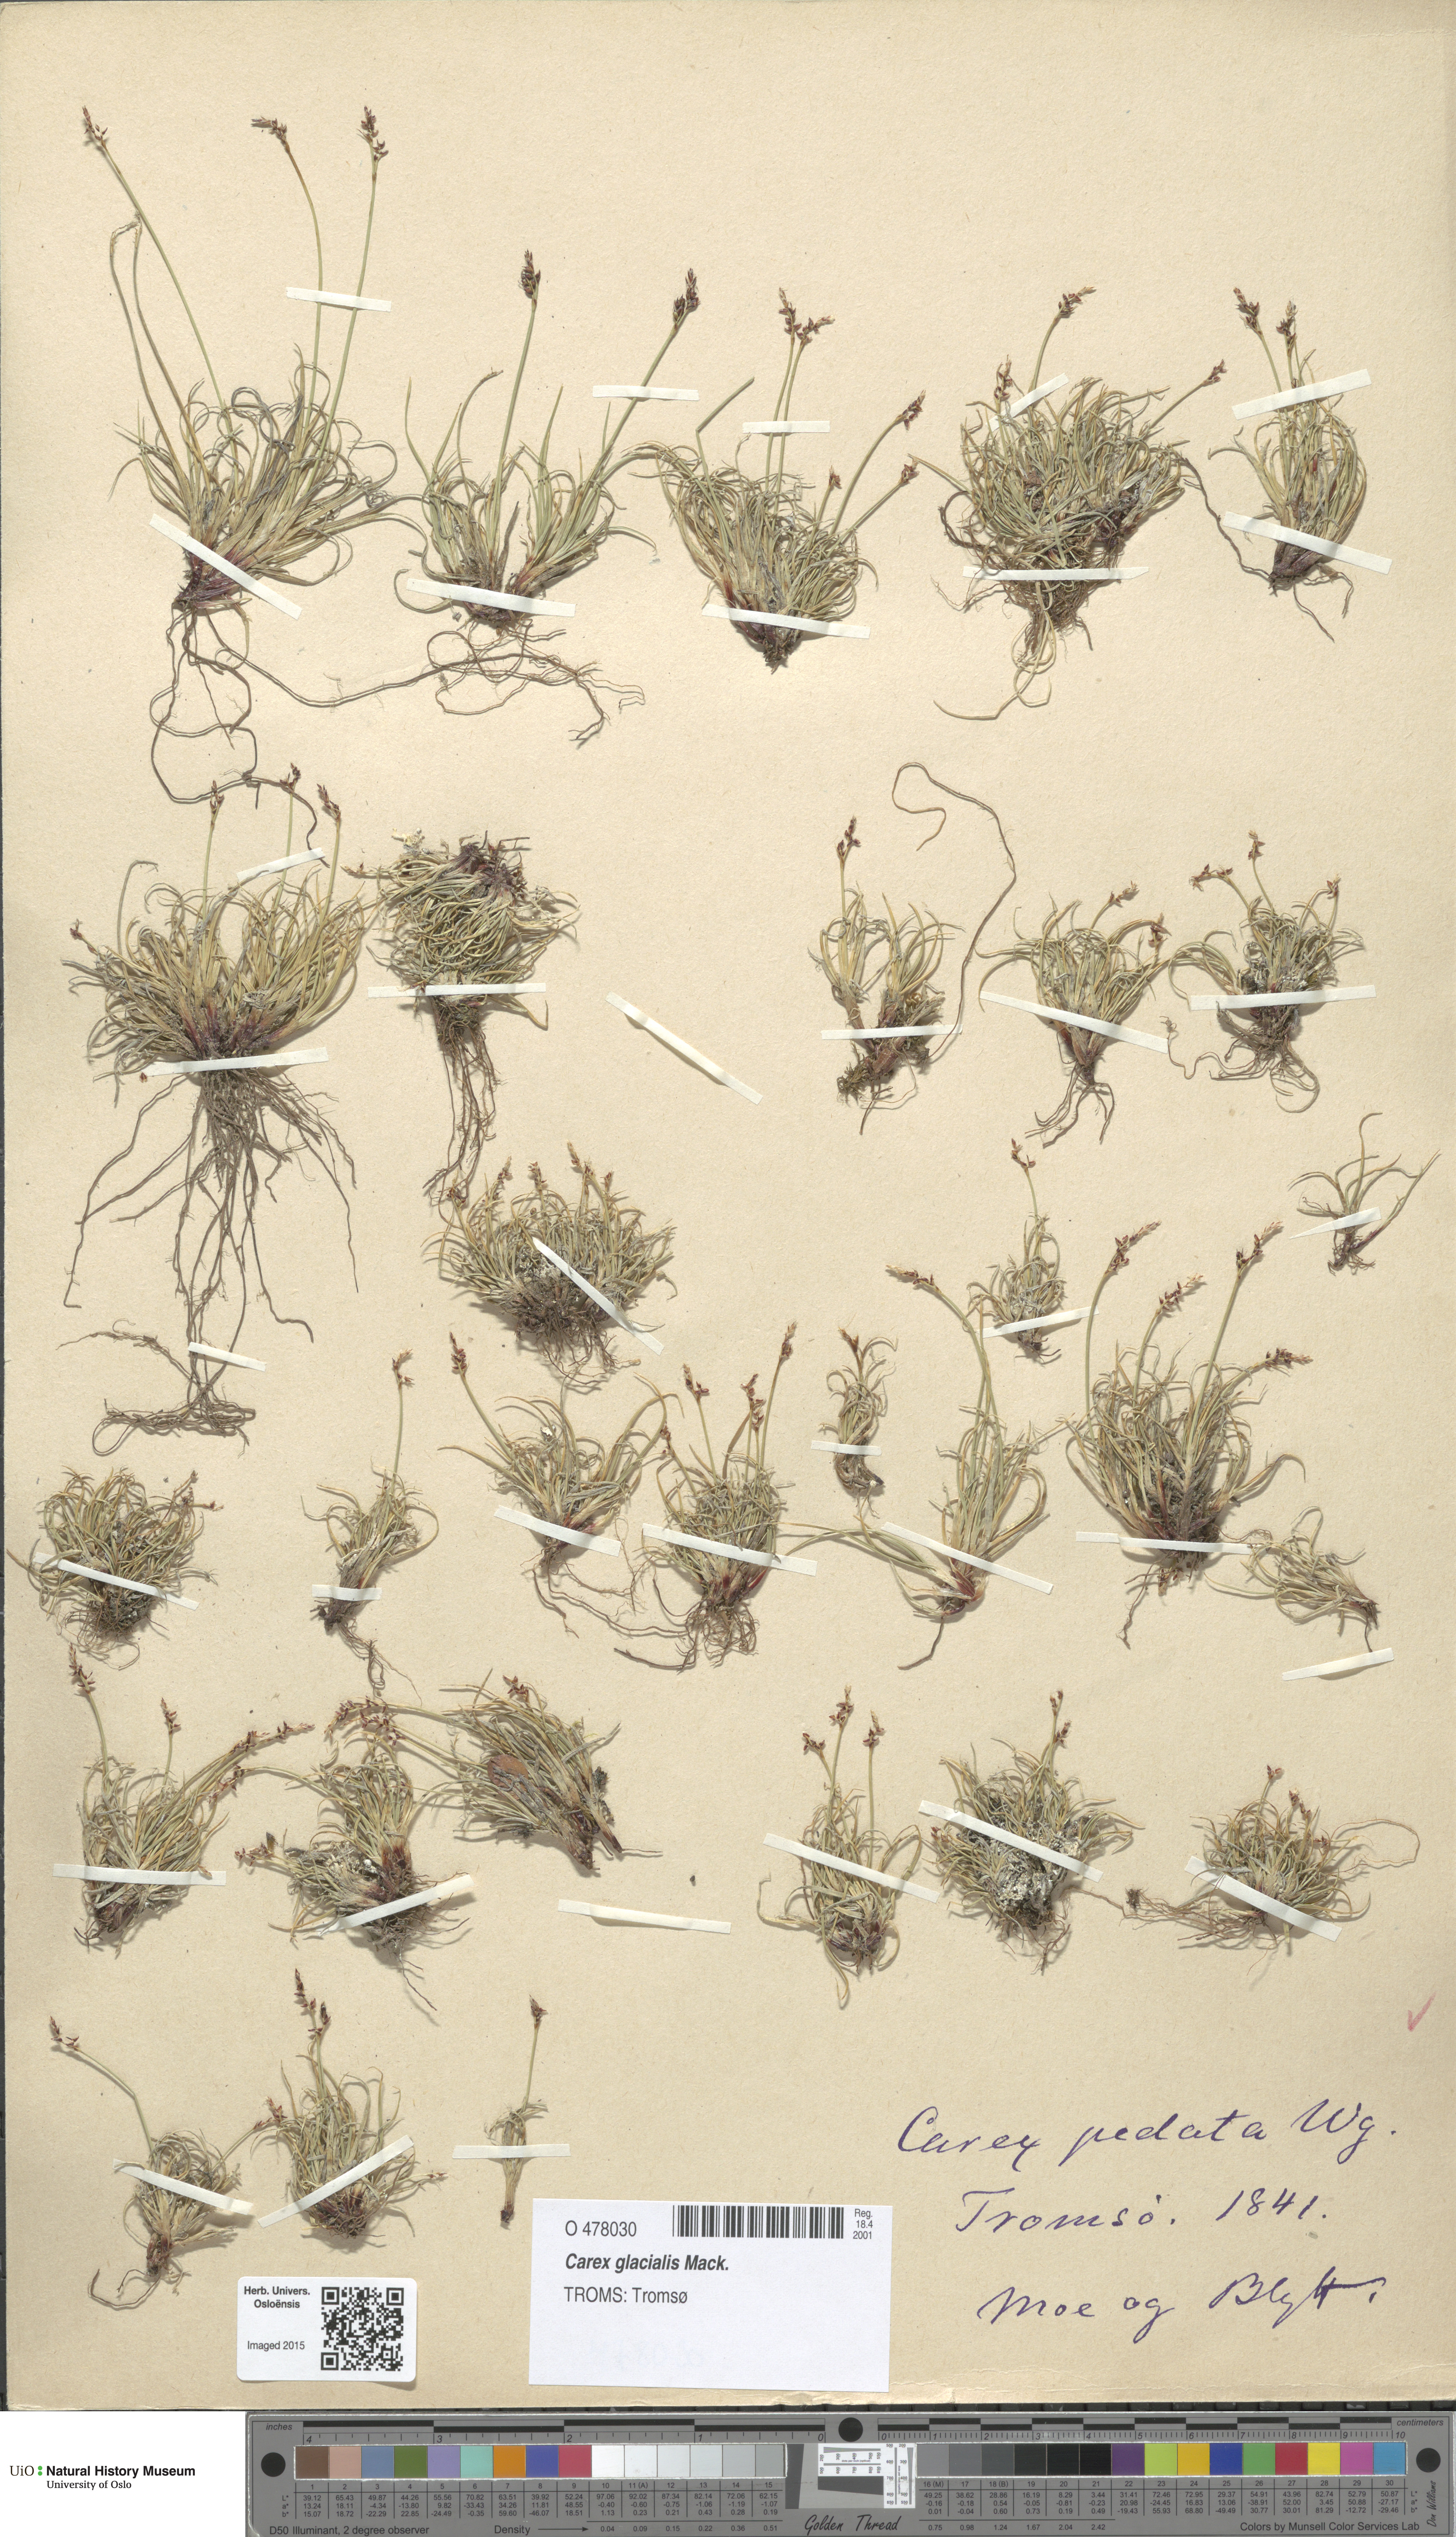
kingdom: Plantae
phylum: Tracheophyta
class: Liliopsida
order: Poales
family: Cyperaceae
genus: Carex
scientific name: Carex glacialis
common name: Newfoundland sedge
